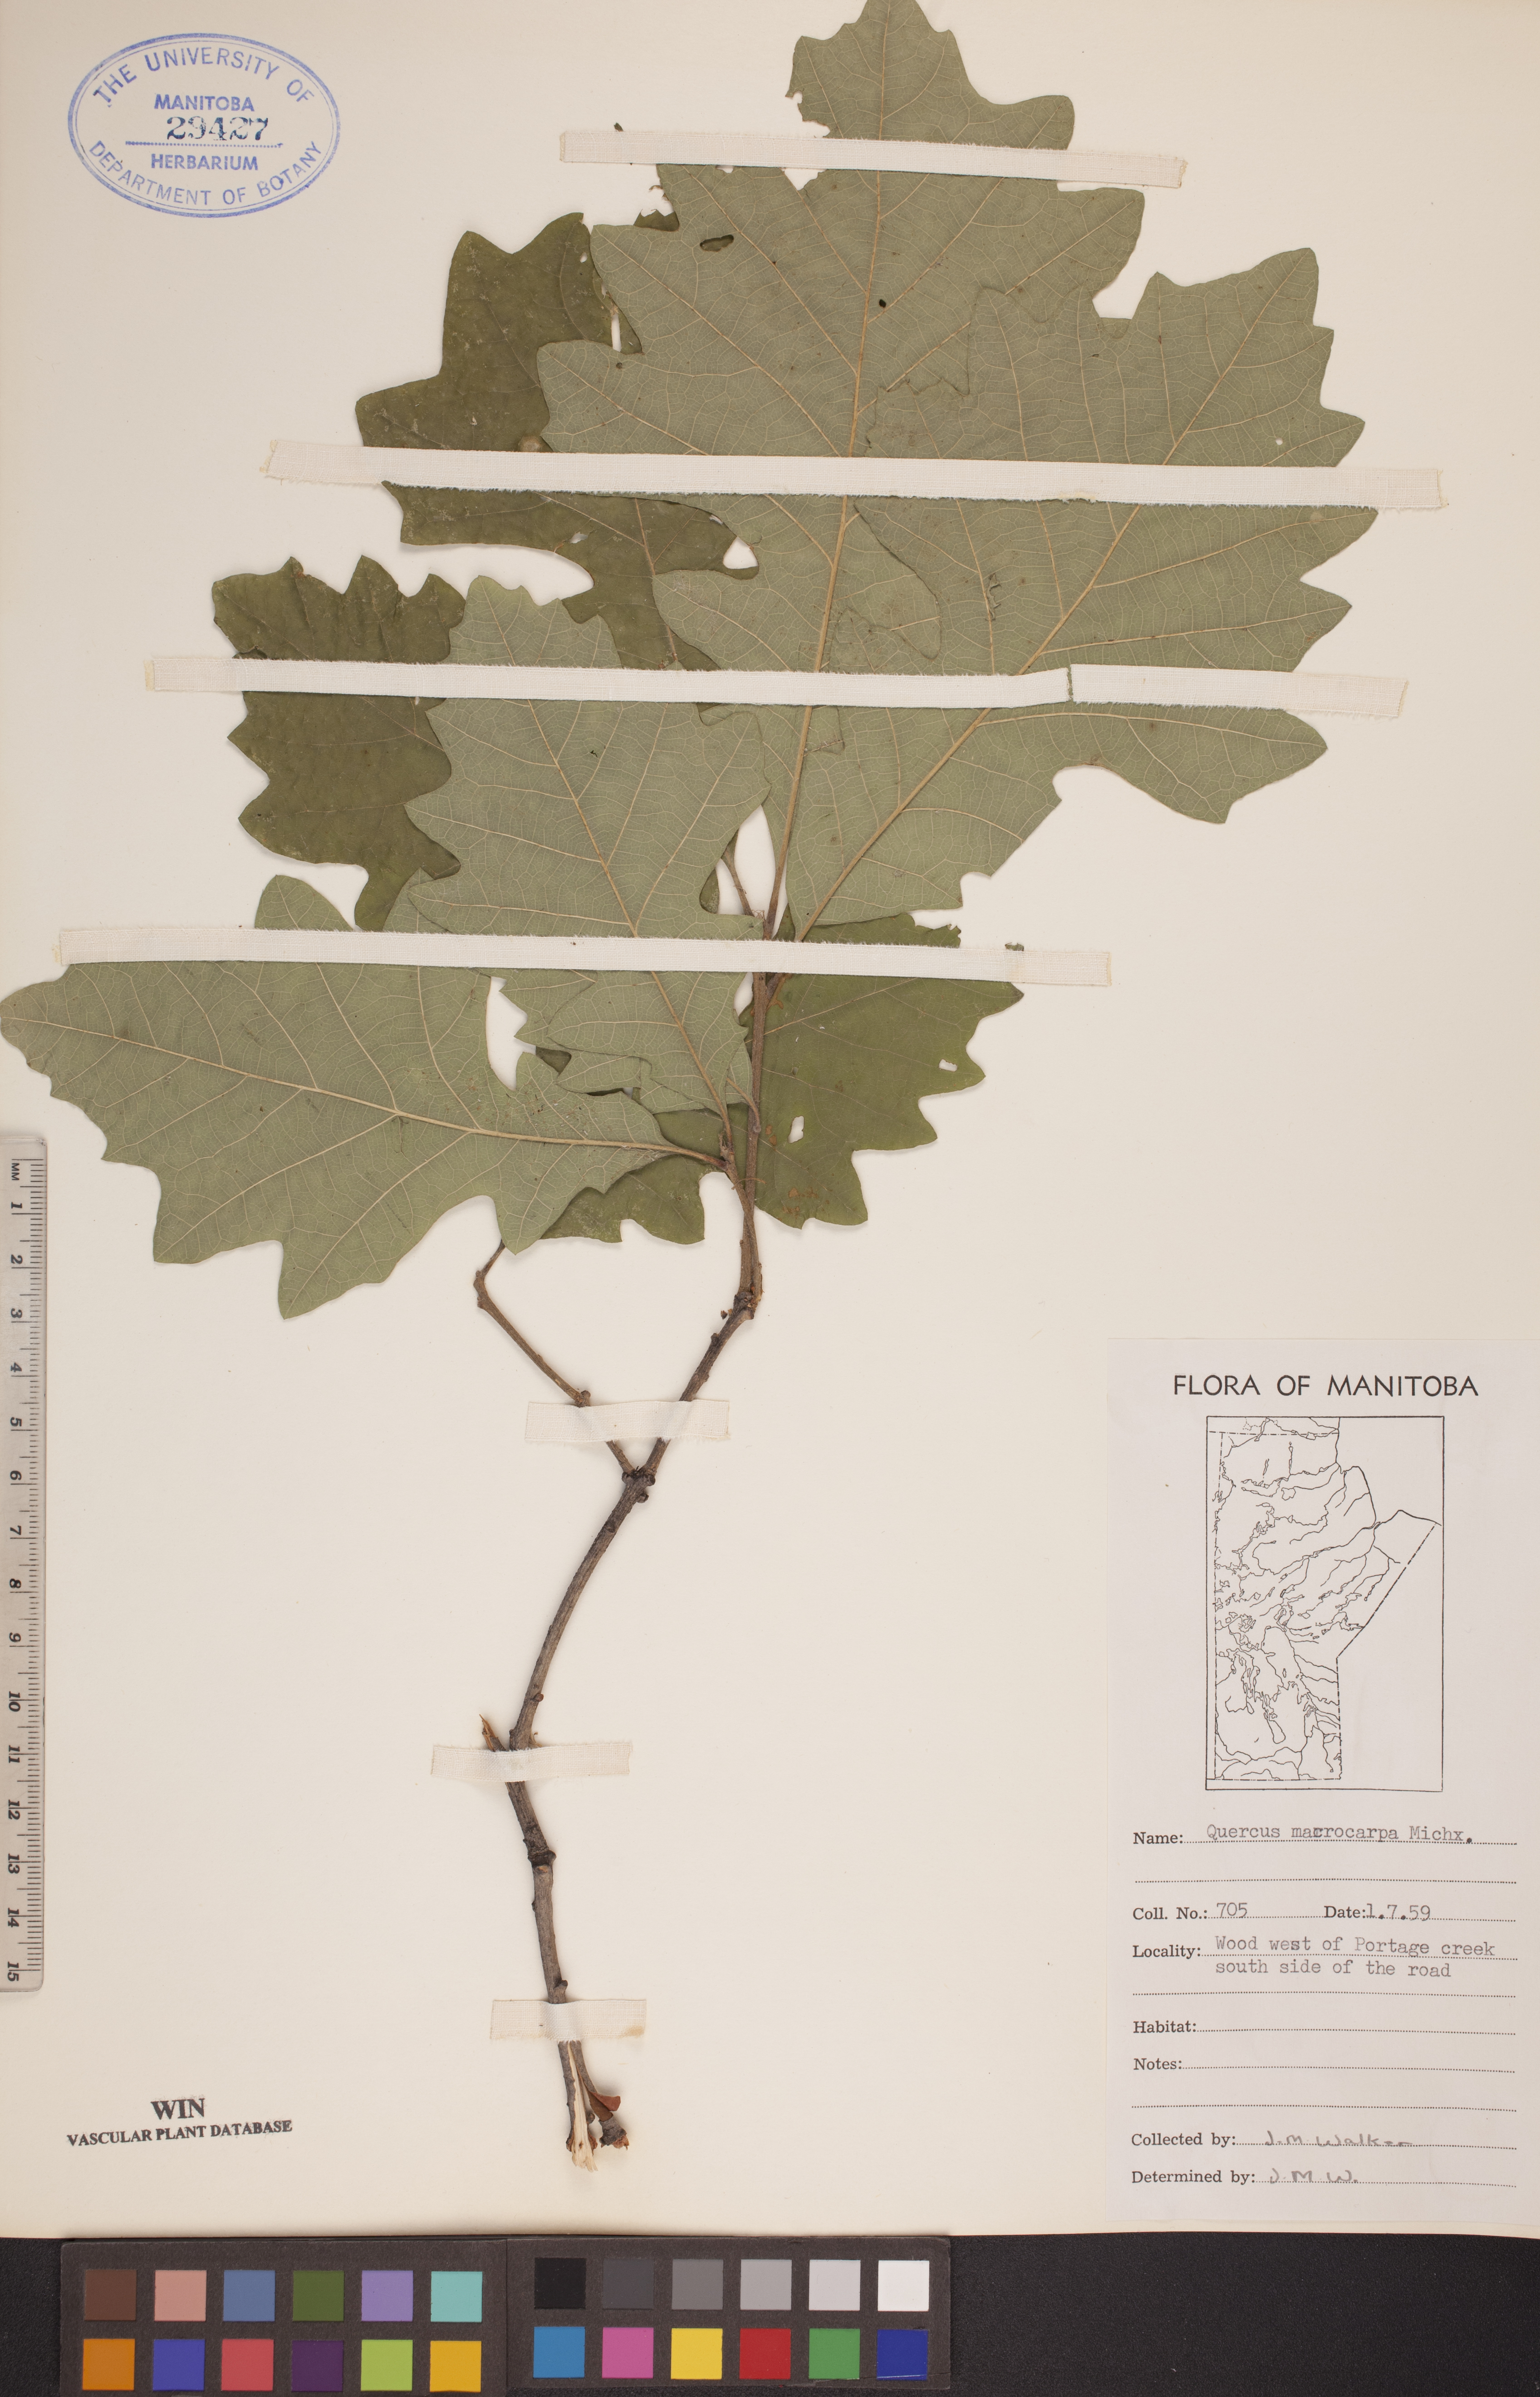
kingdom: Plantae
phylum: Tracheophyta
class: Magnoliopsida
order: Fagales
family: Fagaceae
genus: Quercus
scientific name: Quercus macrocarpa
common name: Bur oak
